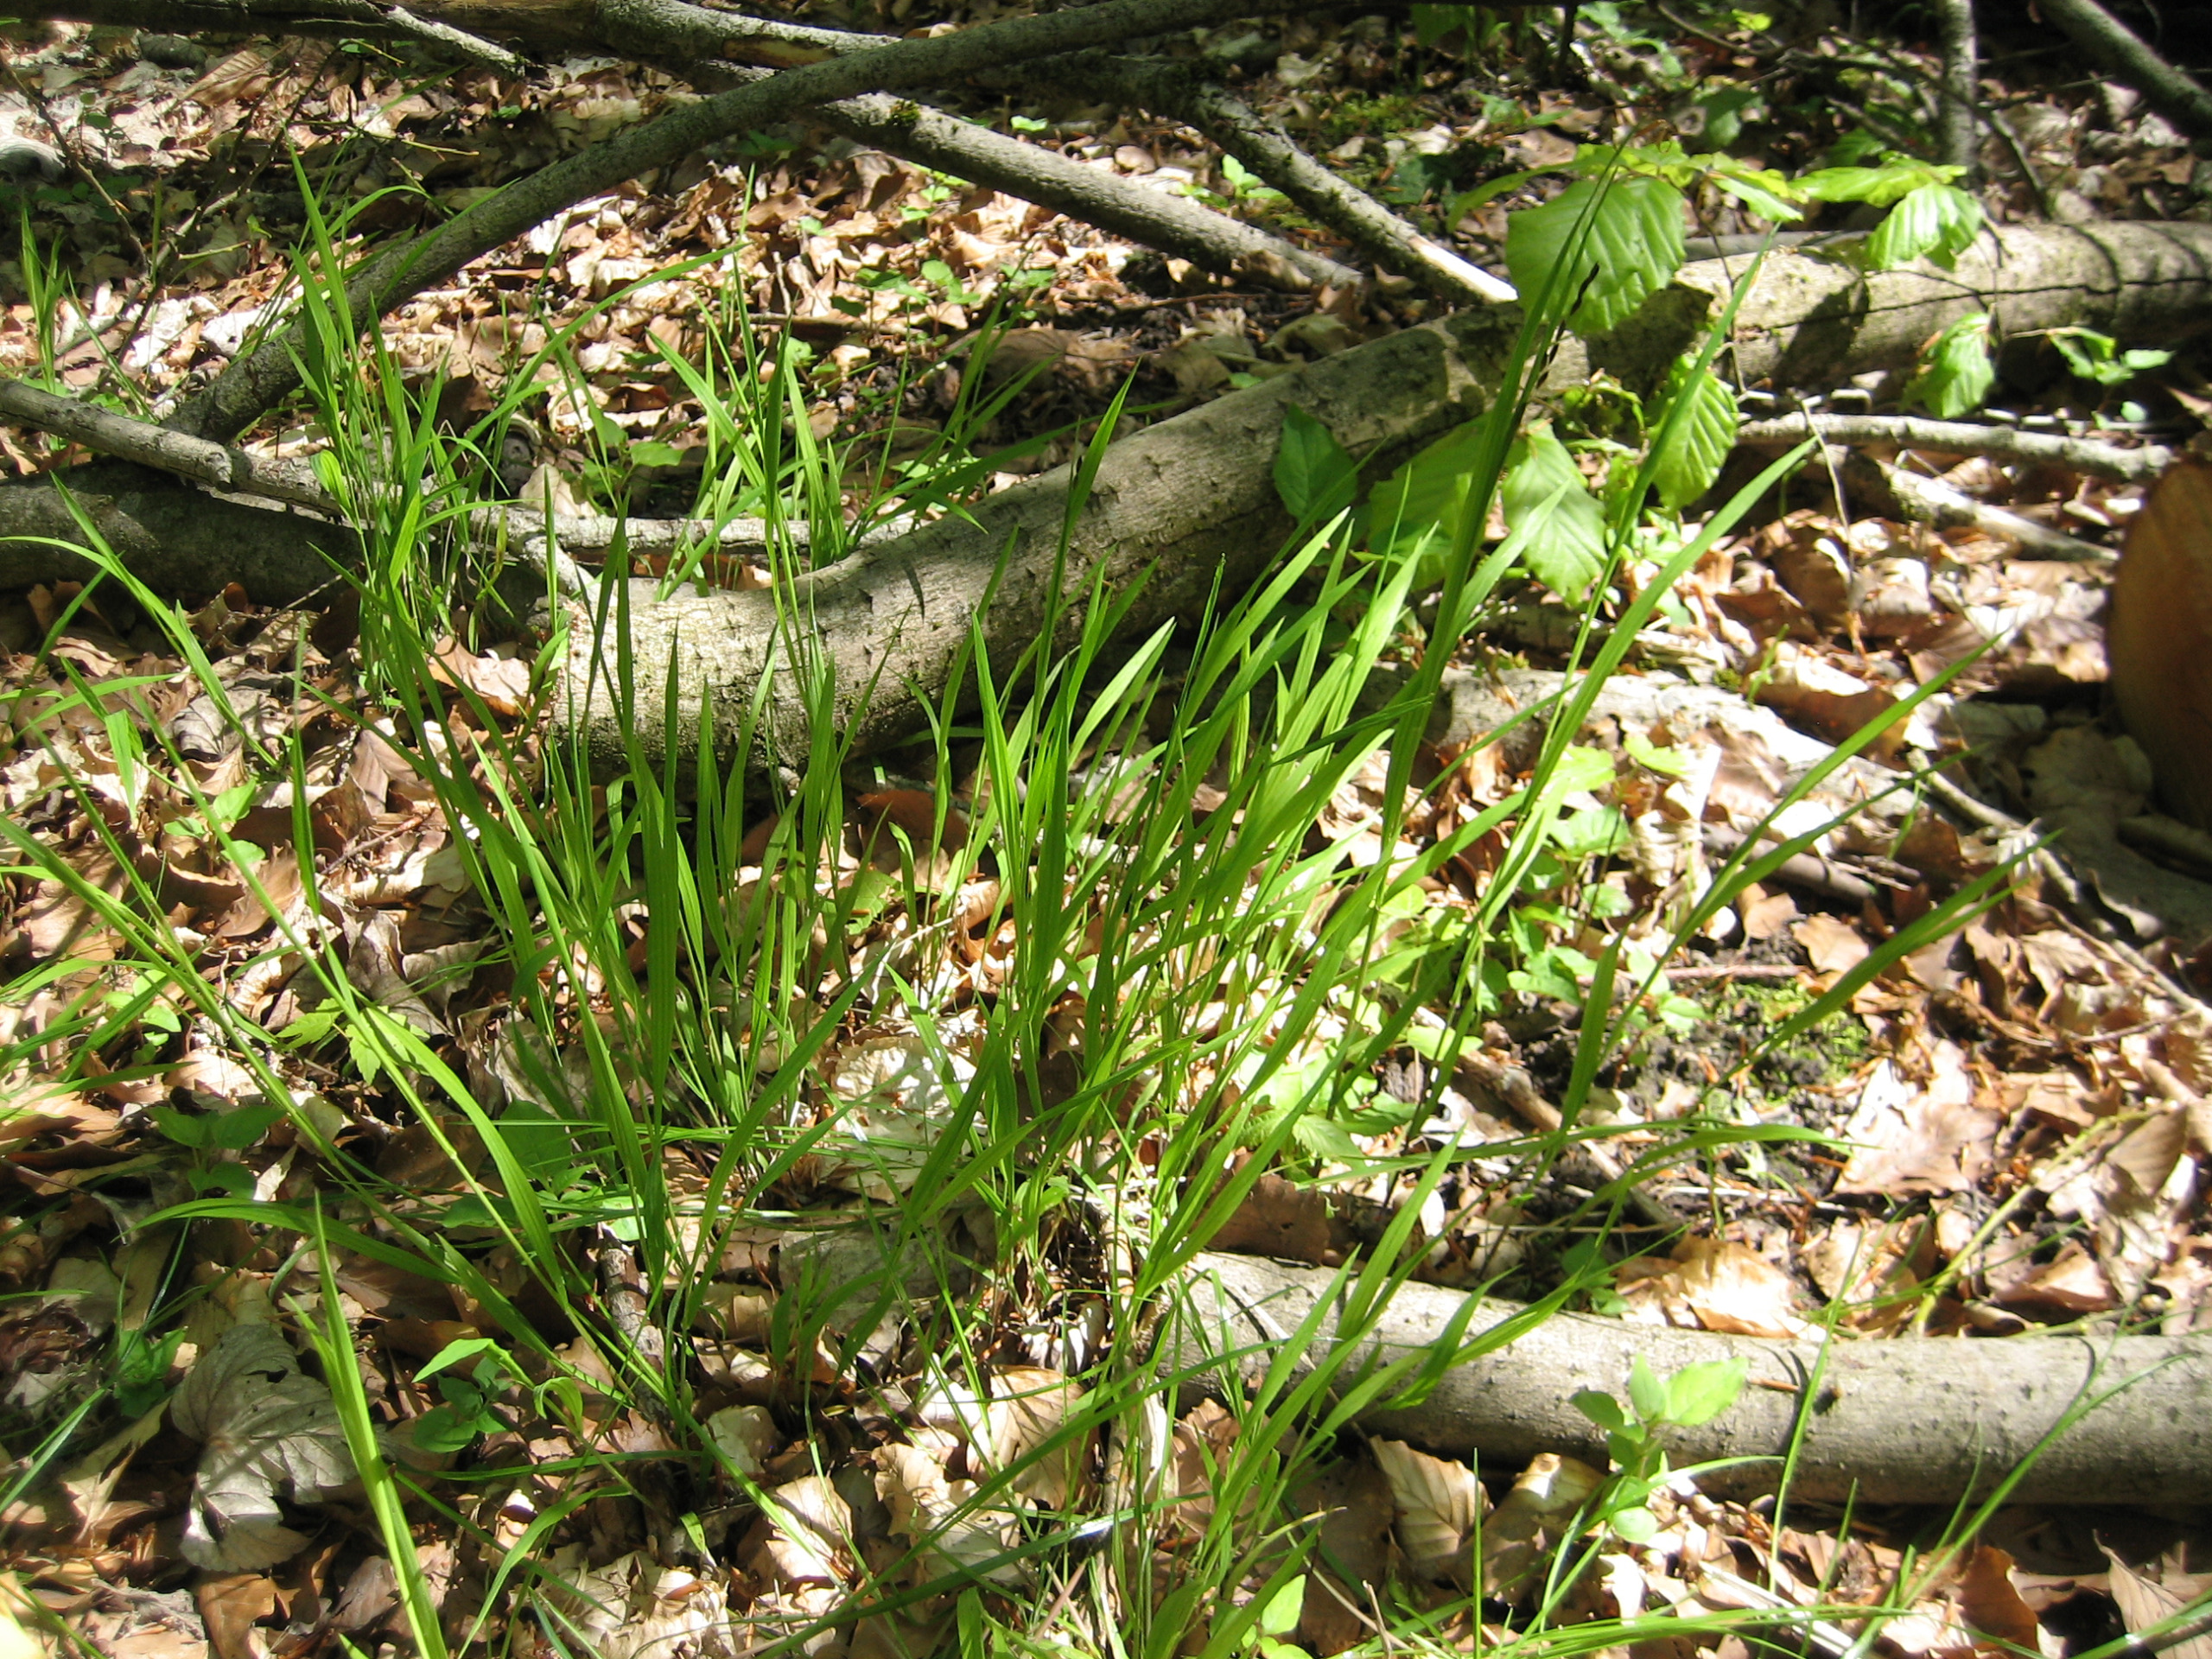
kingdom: Plantae
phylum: Tracheophyta
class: Liliopsida
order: Poales
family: Poaceae
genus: Melica
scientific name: Melica uniflora
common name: Enblomstret flitteraks
